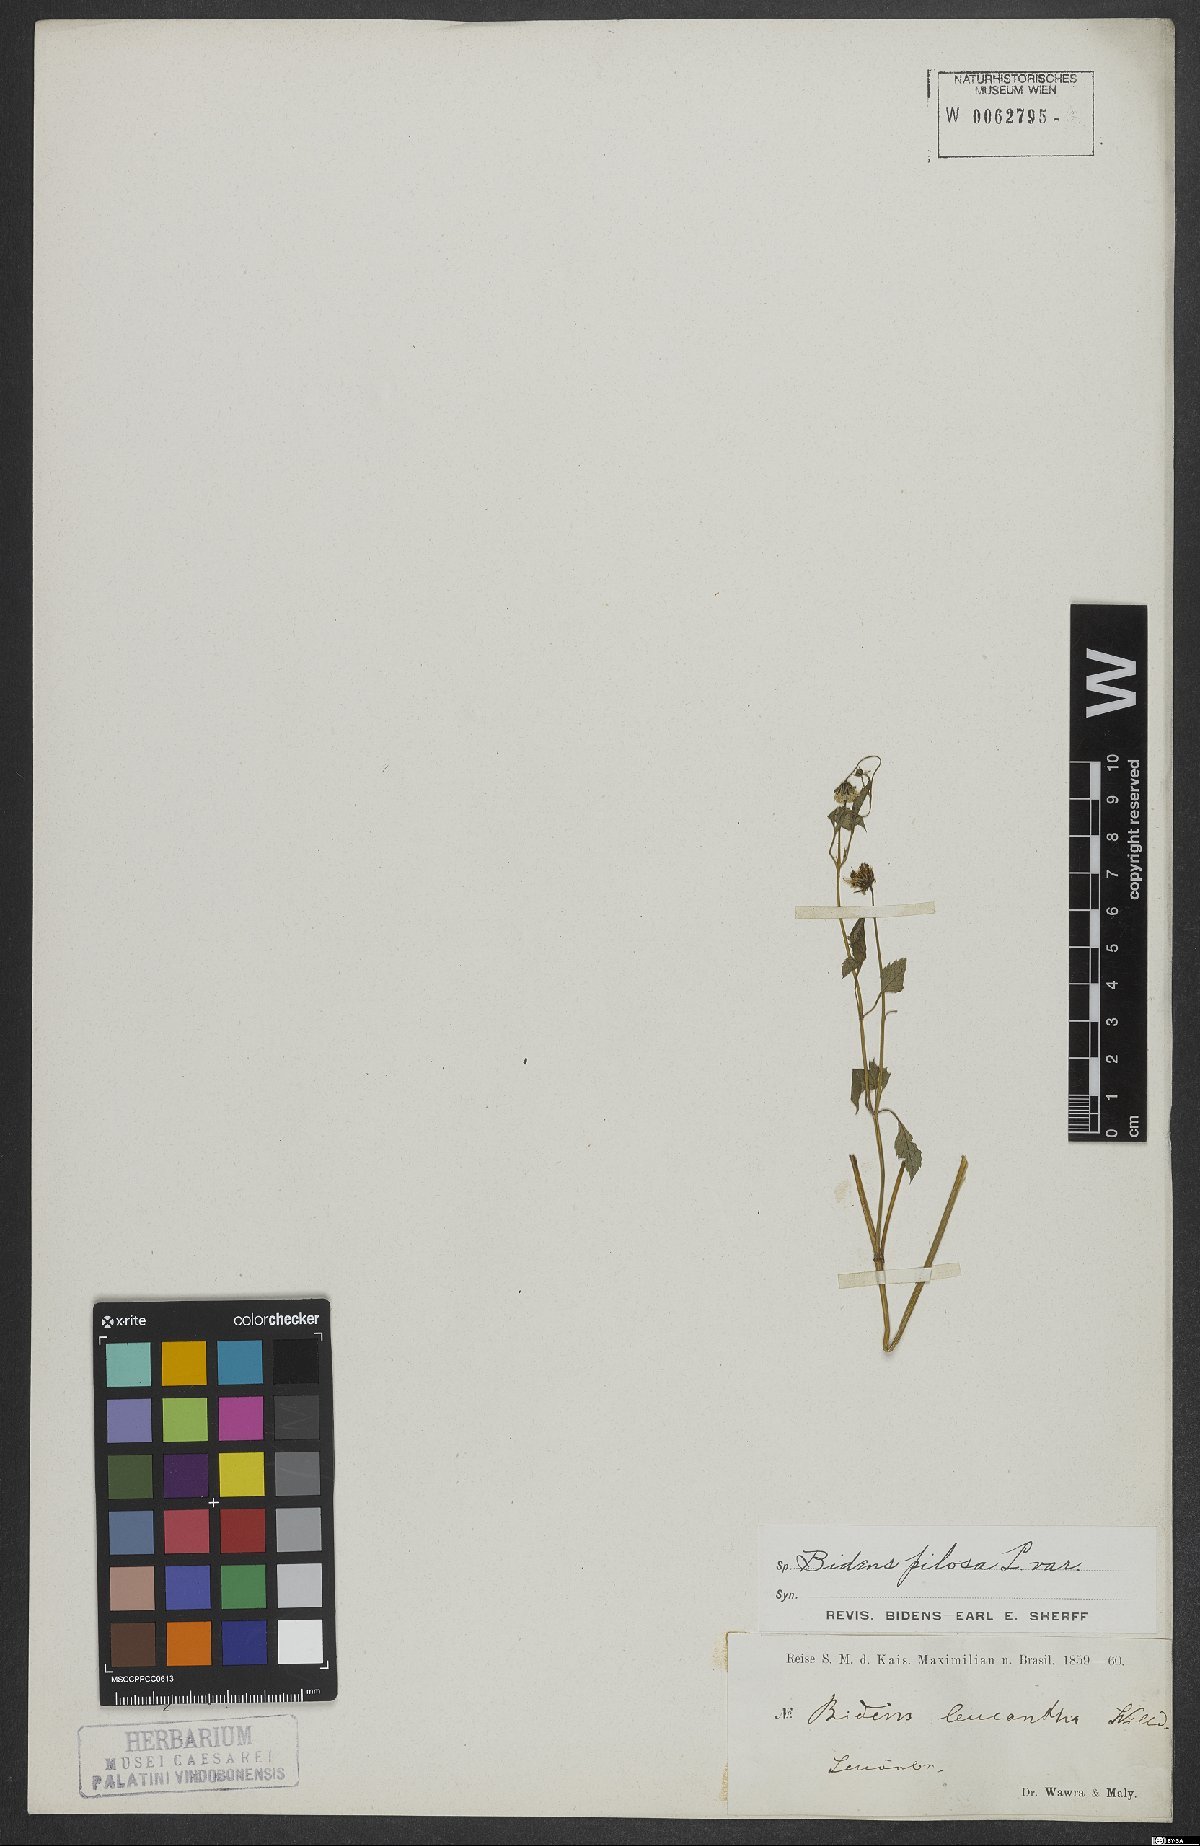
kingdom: Plantae
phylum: Tracheophyta
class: Magnoliopsida
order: Asterales
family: Asteraceae
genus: Bidens
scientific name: Bidens pilosa
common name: Black-jack
